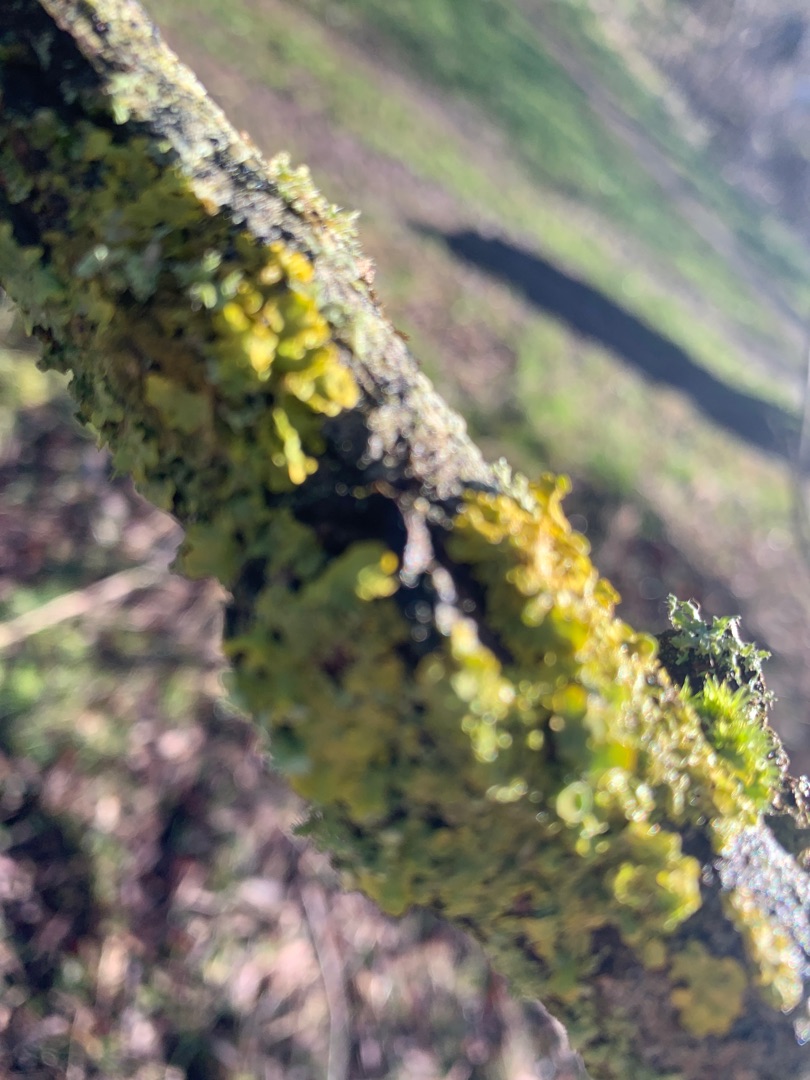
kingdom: Fungi
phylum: Ascomycota
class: Lecanoromycetes
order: Teloschistales
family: Teloschistaceae
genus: Xanthoria
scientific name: Xanthoria parietina
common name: Almindelig væggelav
